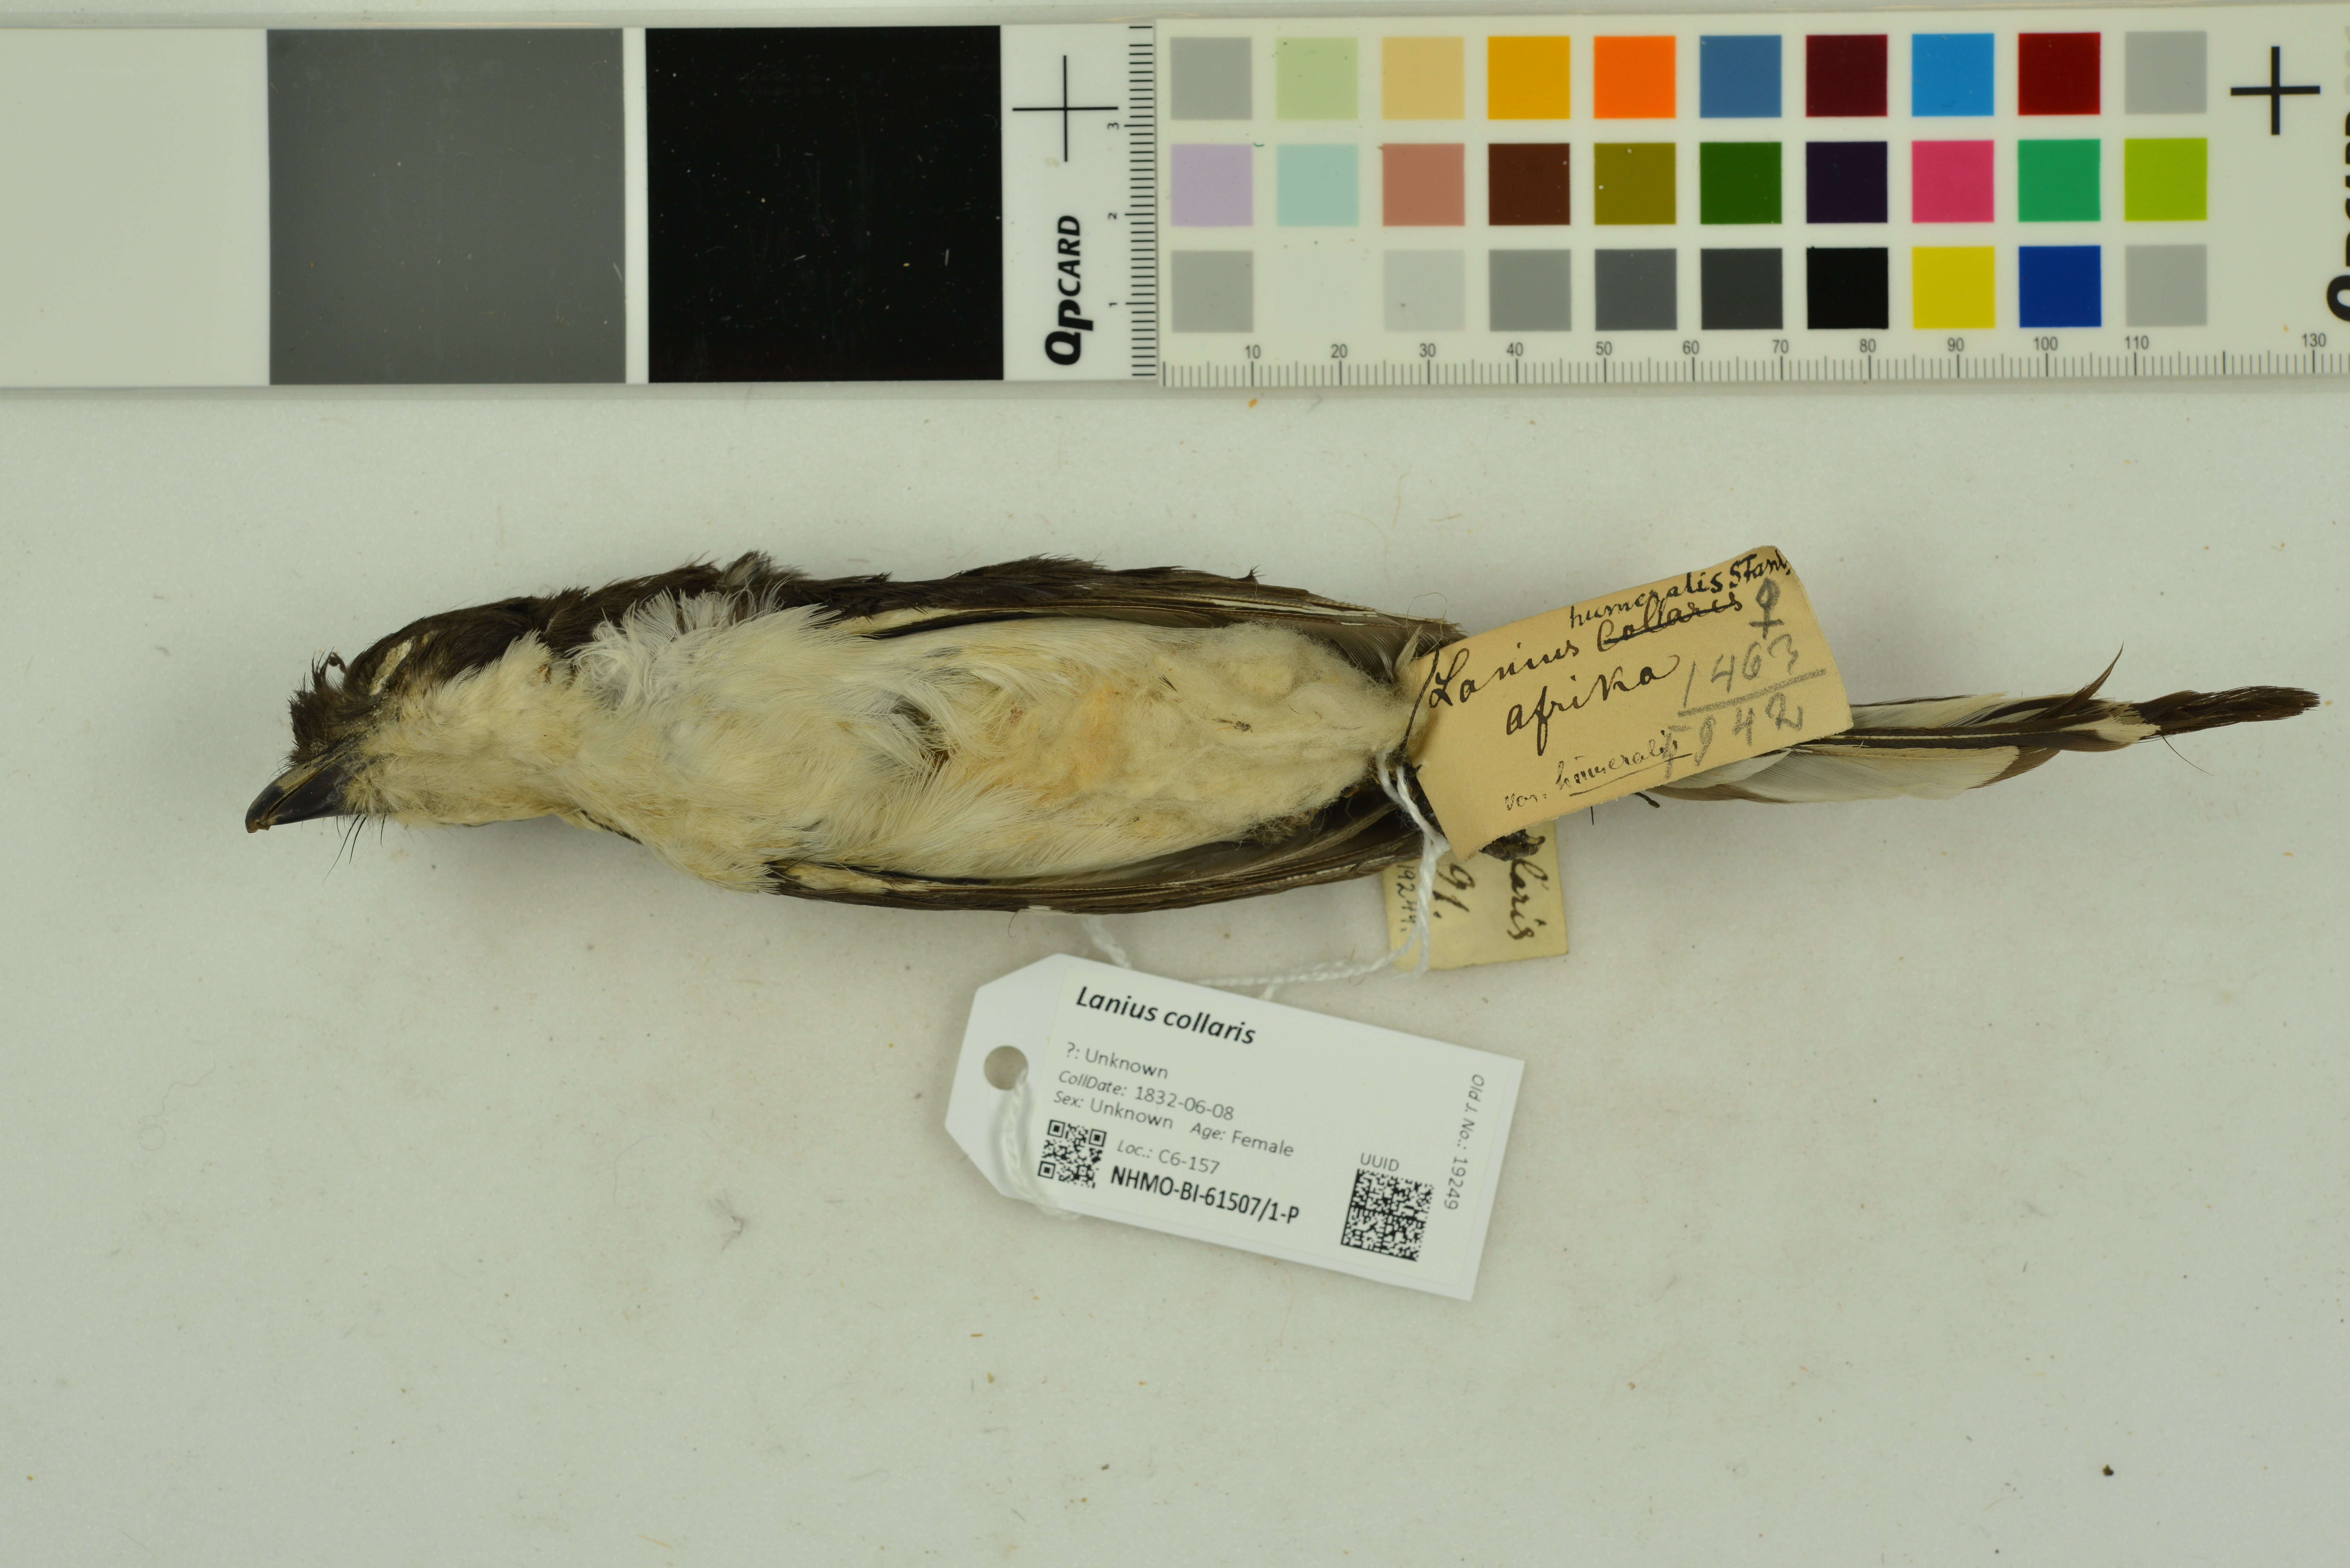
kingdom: Animalia
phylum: Chordata
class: Aves
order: Passeriformes
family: Laniidae
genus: Lanius
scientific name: Lanius collaris
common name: Southern fiscal
